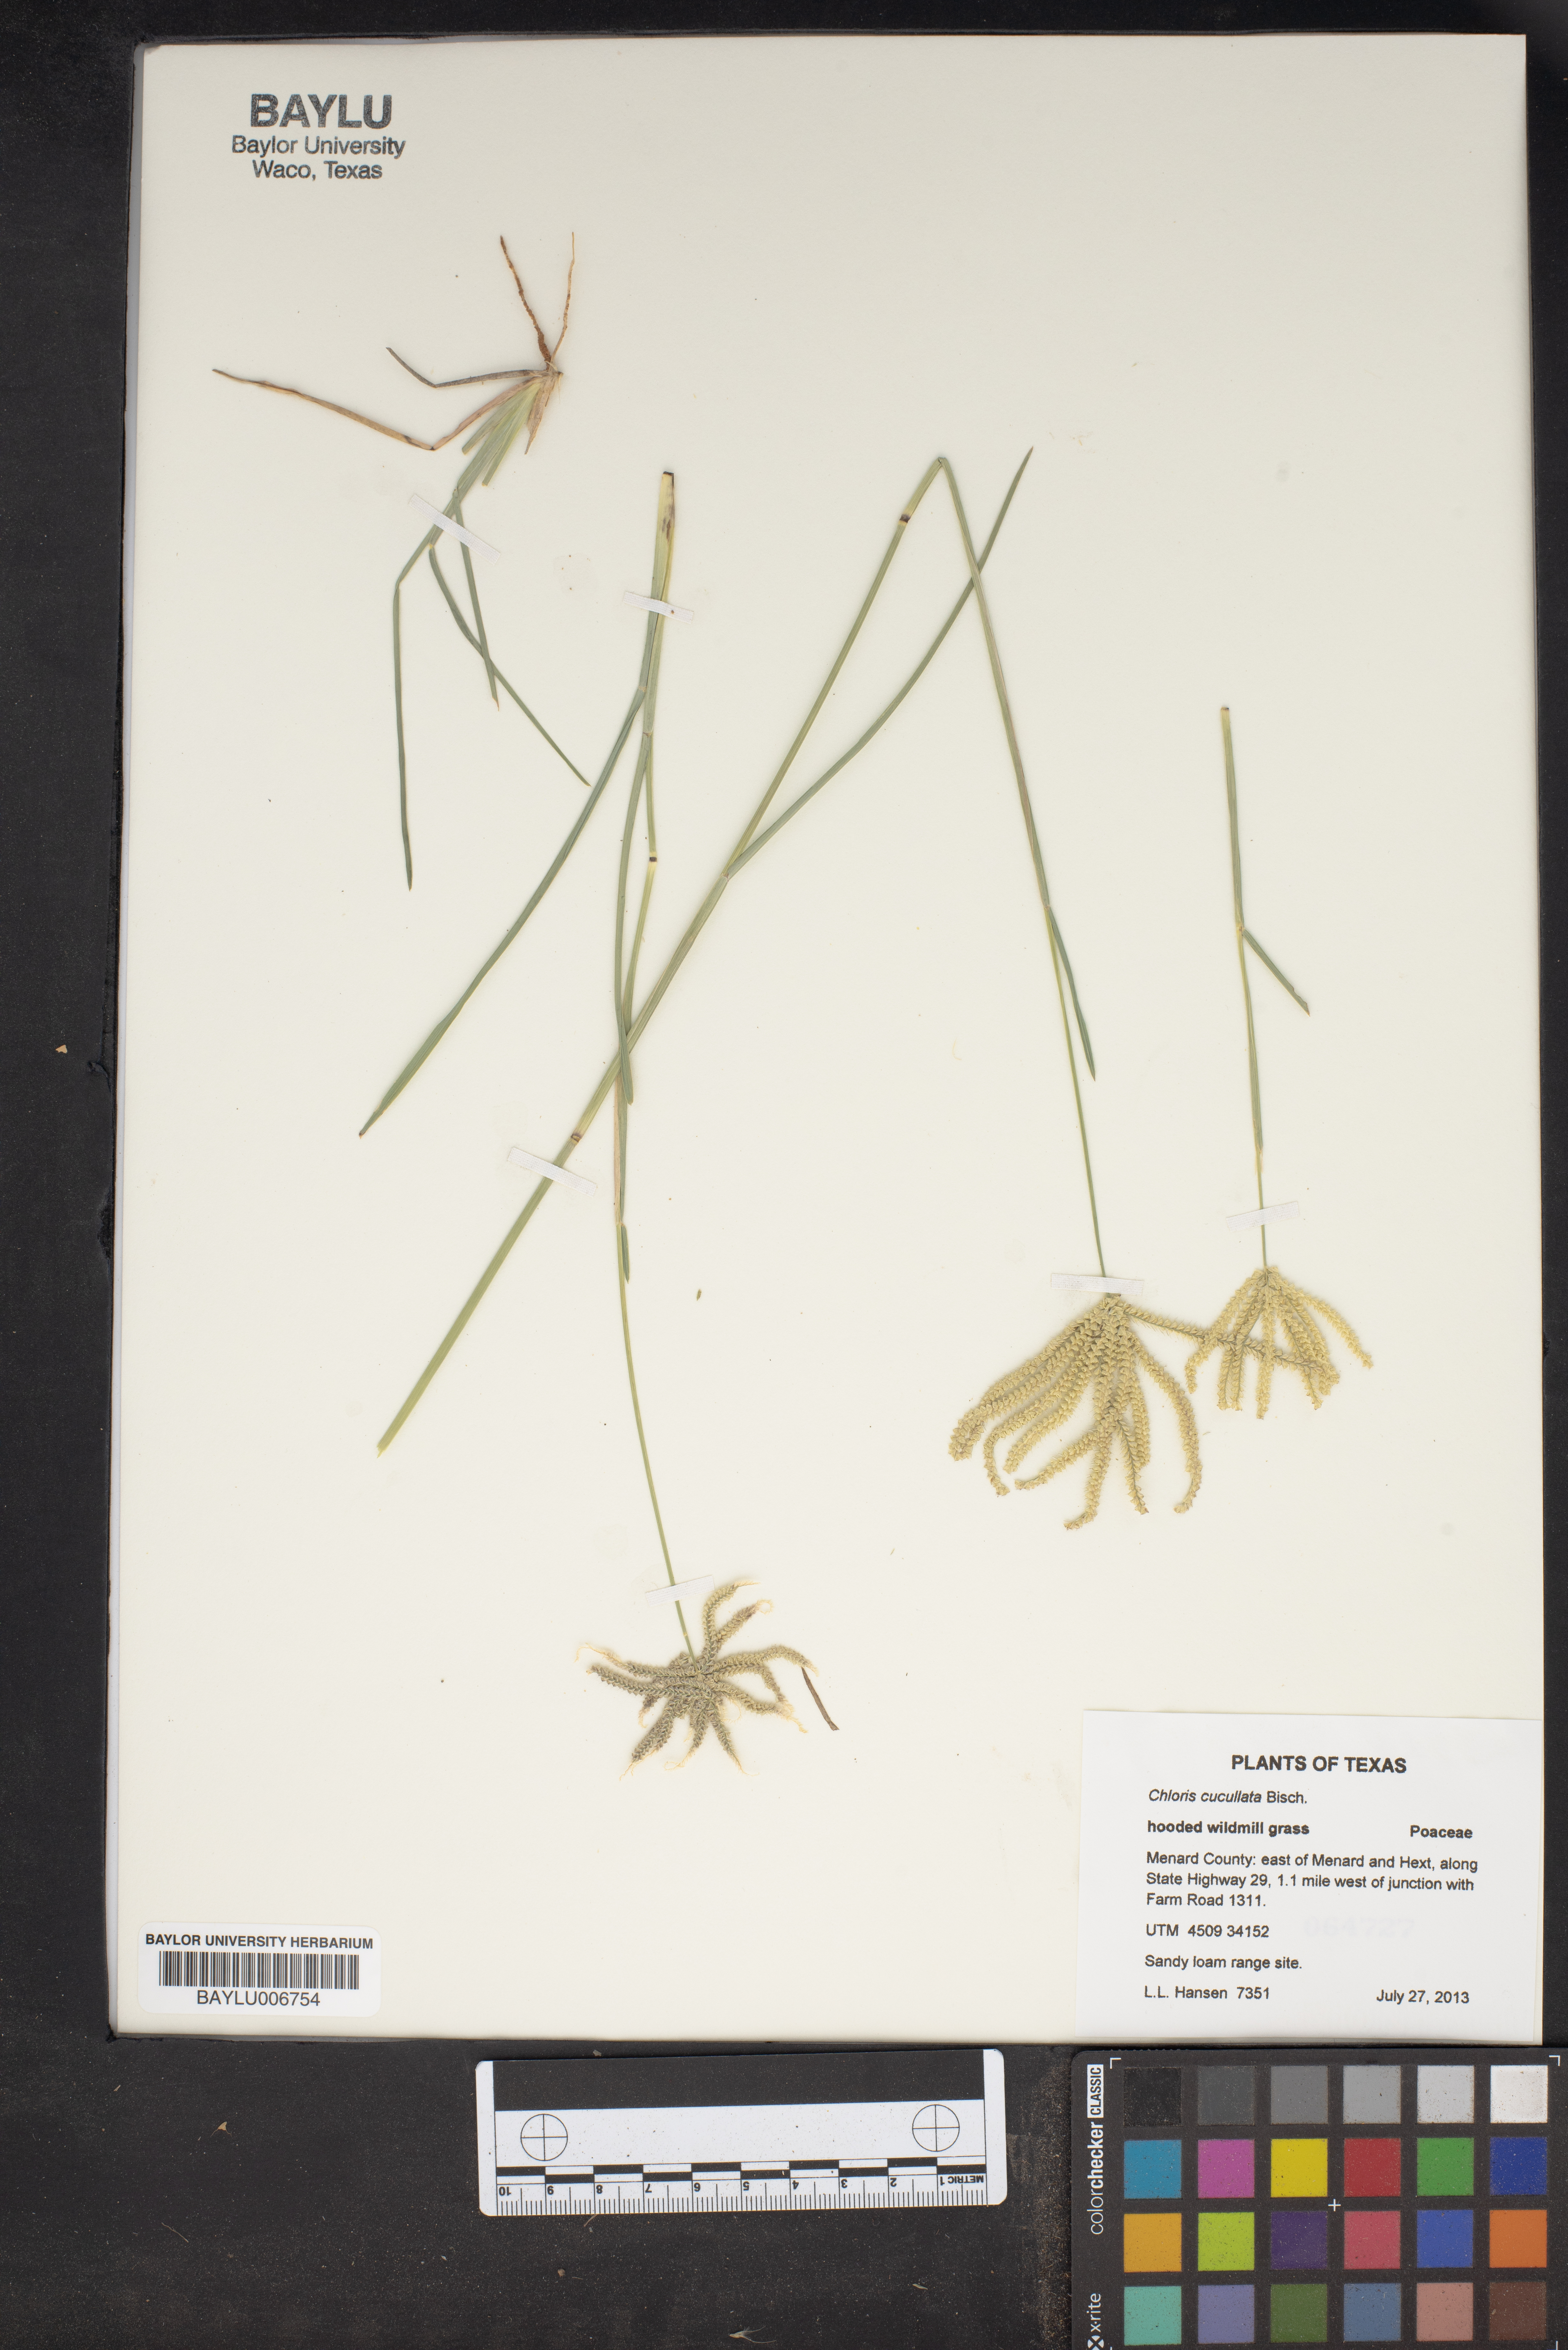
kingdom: Plantae
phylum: Tracheophyta
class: Liliopsida
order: Poales
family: Poaceae
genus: Chloris
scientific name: Chloris cucullata
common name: Hooded windmill grass
